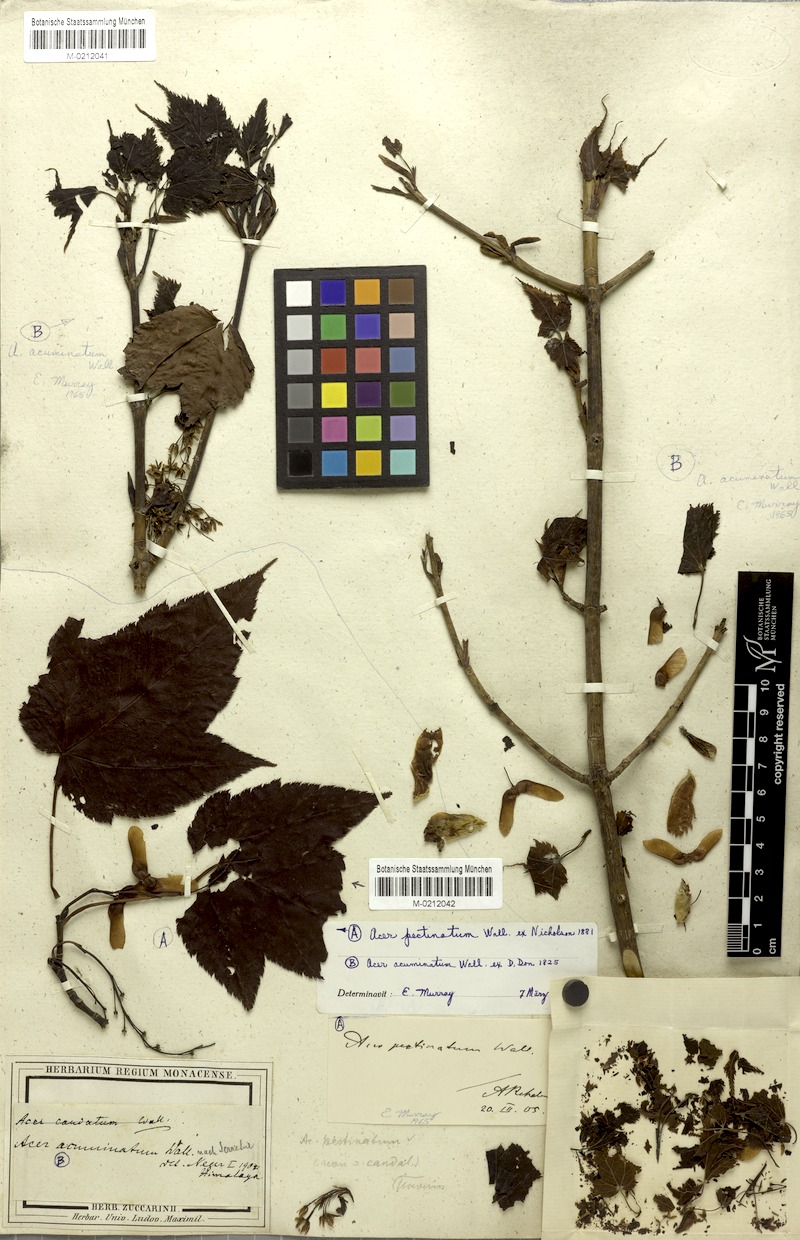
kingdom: Plantae
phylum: Tracheophyta
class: Magnoliopsida
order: Sapindales
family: Sapindaceae
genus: Acer
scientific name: Acer caudatum
